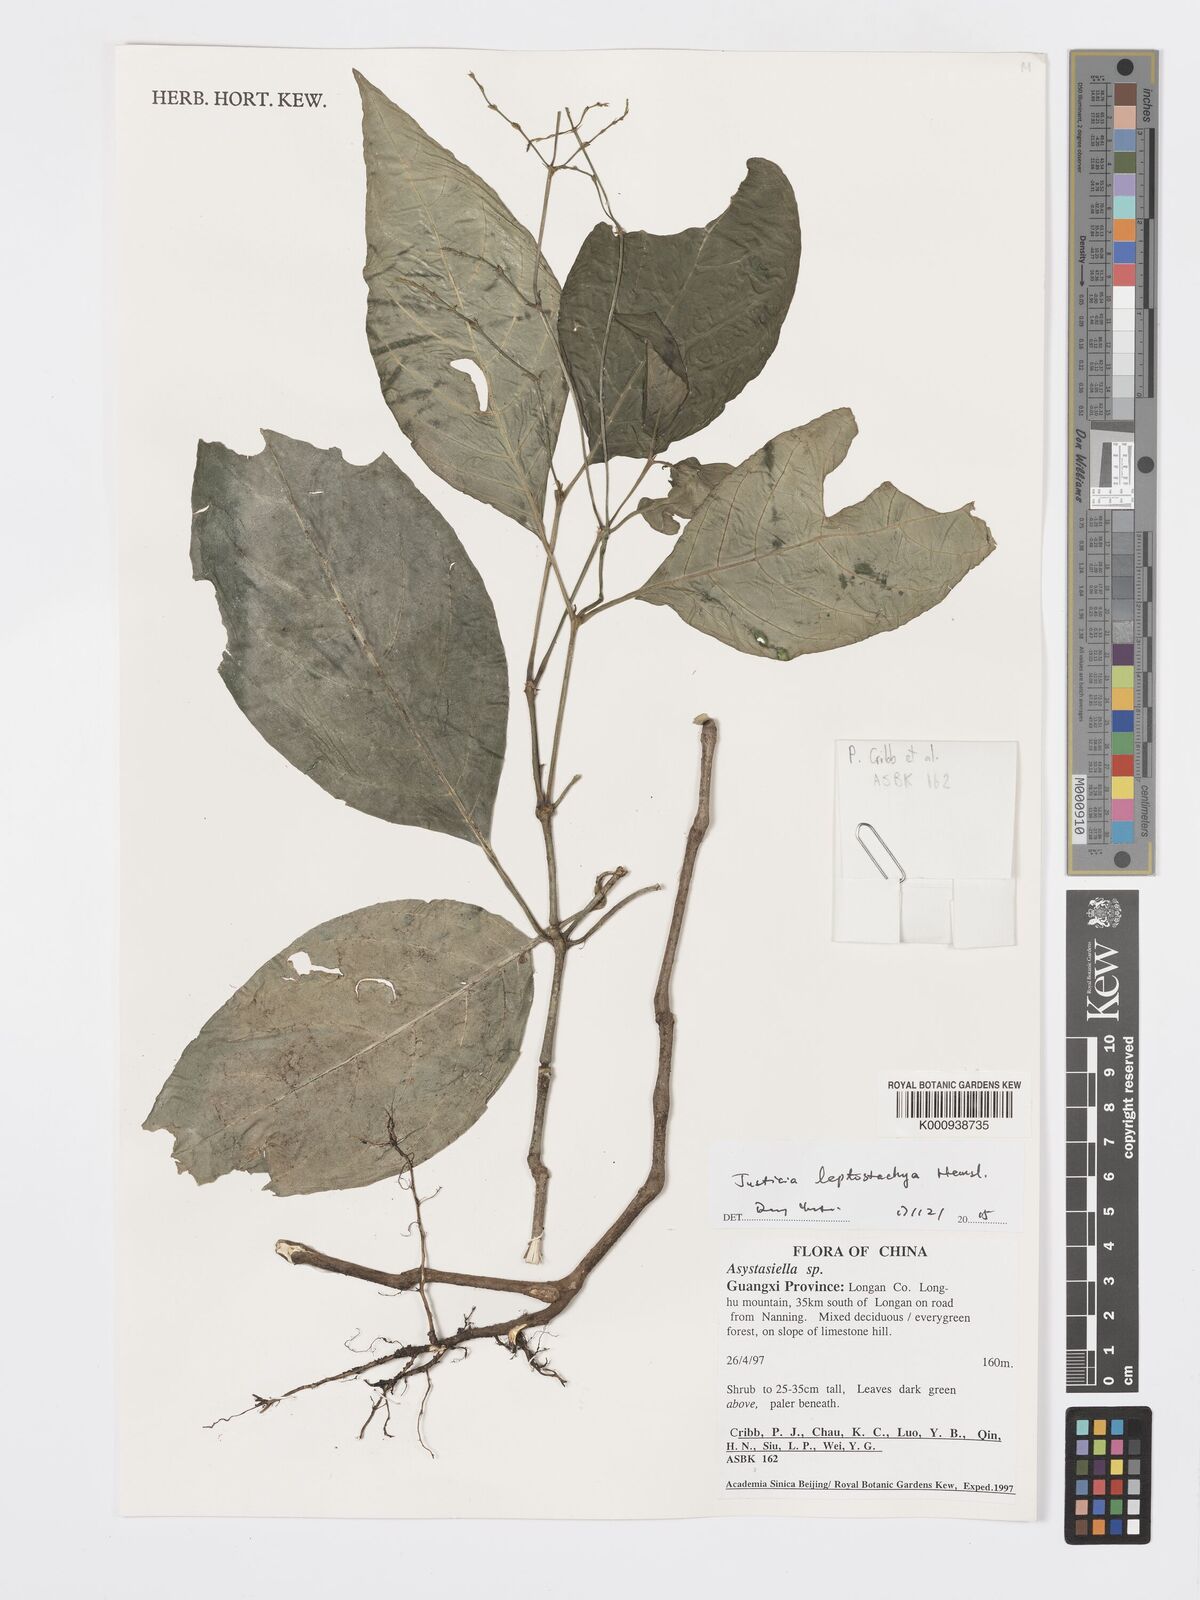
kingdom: Plantae
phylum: Tracheophyta
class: Magnoliopsida
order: Lamiales
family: Acanthaceae
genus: Justicia
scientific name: Justicia leptostachya
